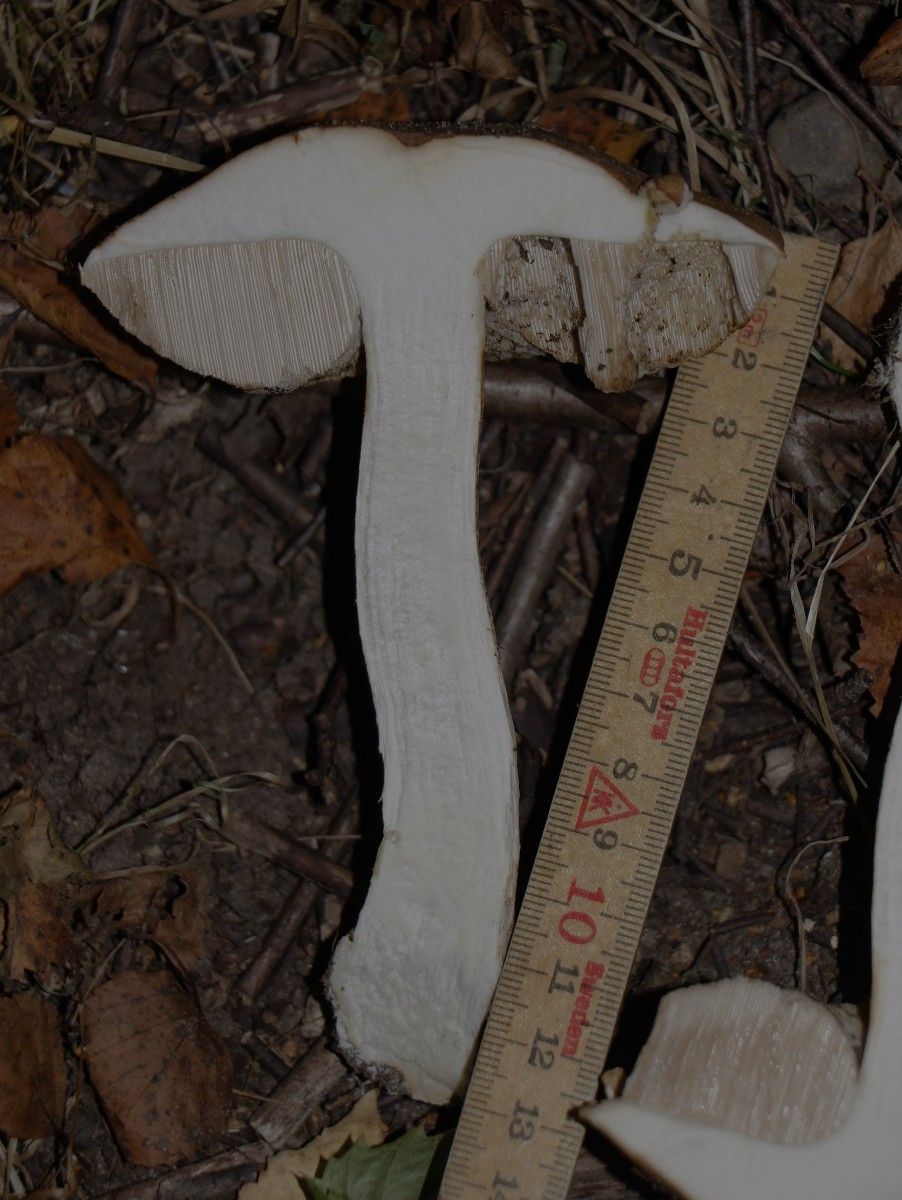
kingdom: Fungi
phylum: Basidiomycota
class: Agaricomycetes
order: Boletales
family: Boletaceae
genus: Leccinum
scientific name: Leccinum scabrum
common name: brun skælrørhat
